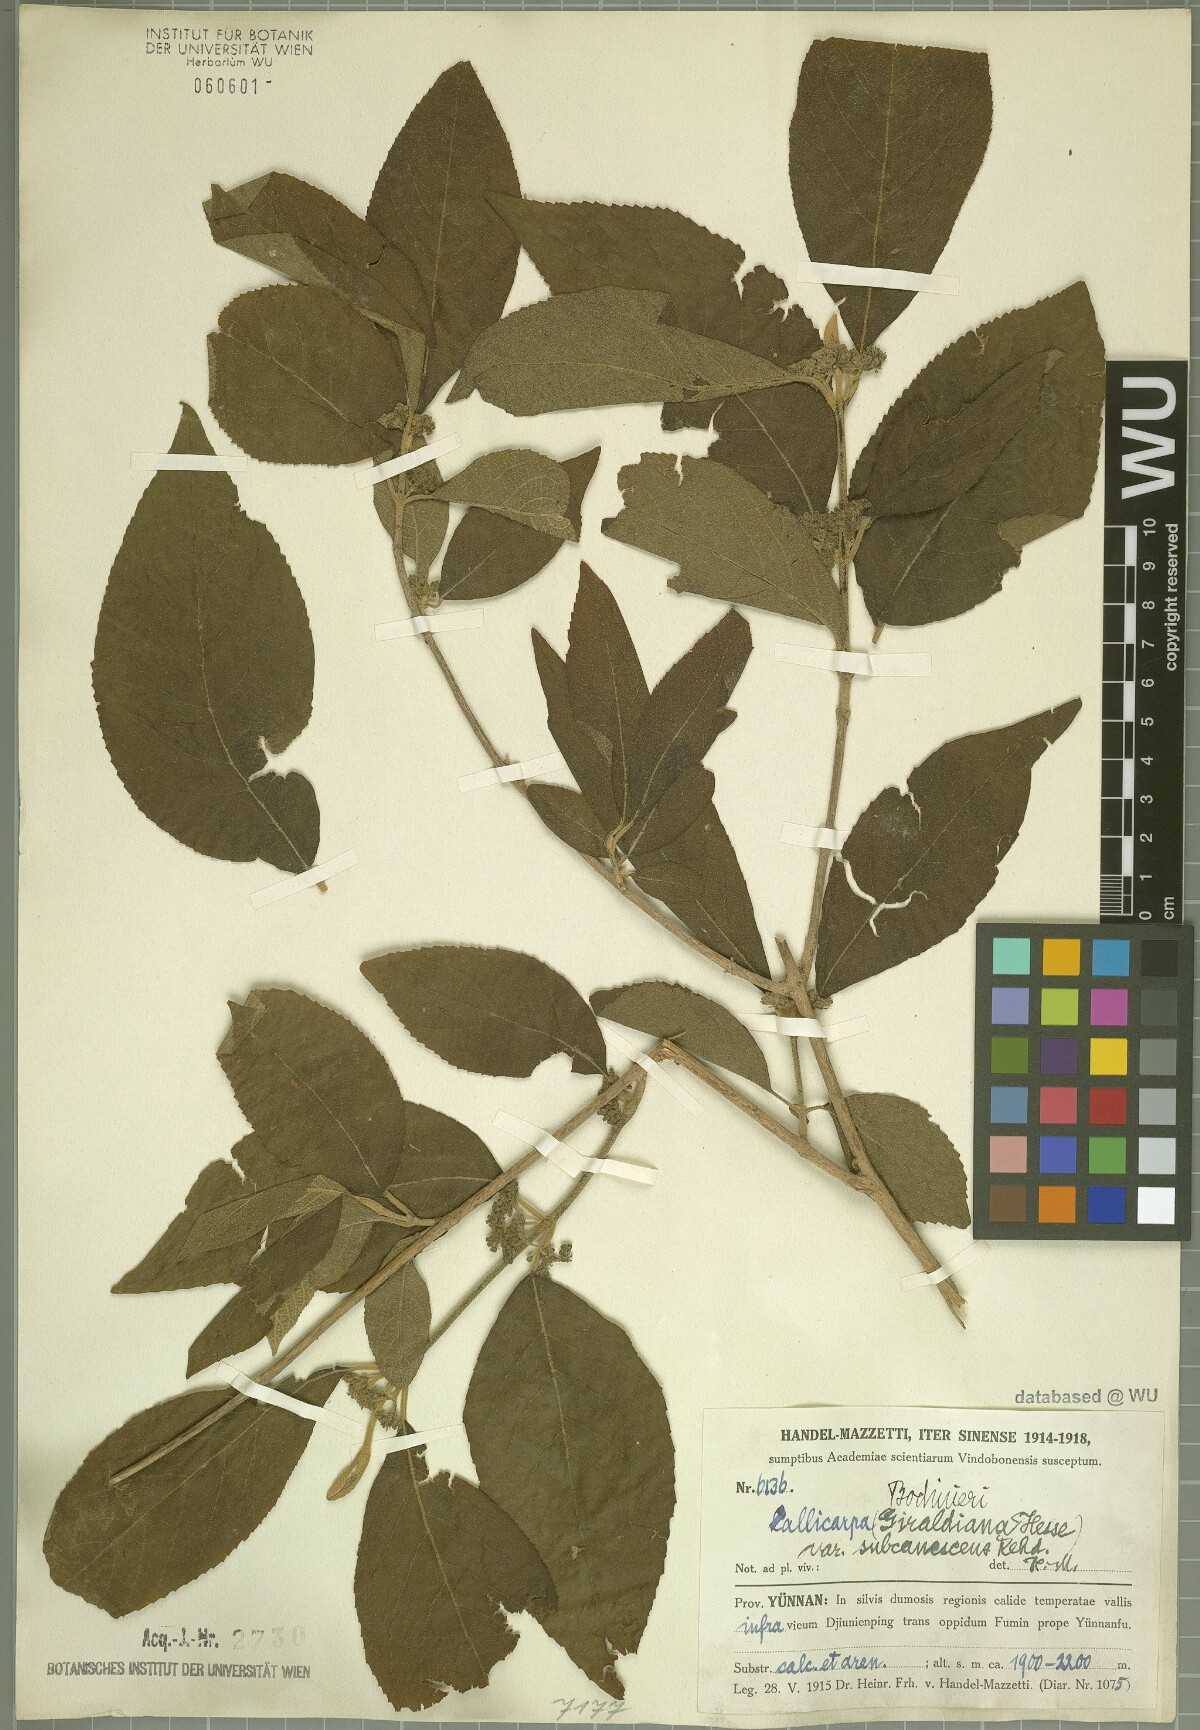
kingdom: Plantae
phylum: Tracheophyta
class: Magnoliopsida
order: Lamiales
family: Lamiaceae
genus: Callicarpa
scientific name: Callicarpa bodinieri
